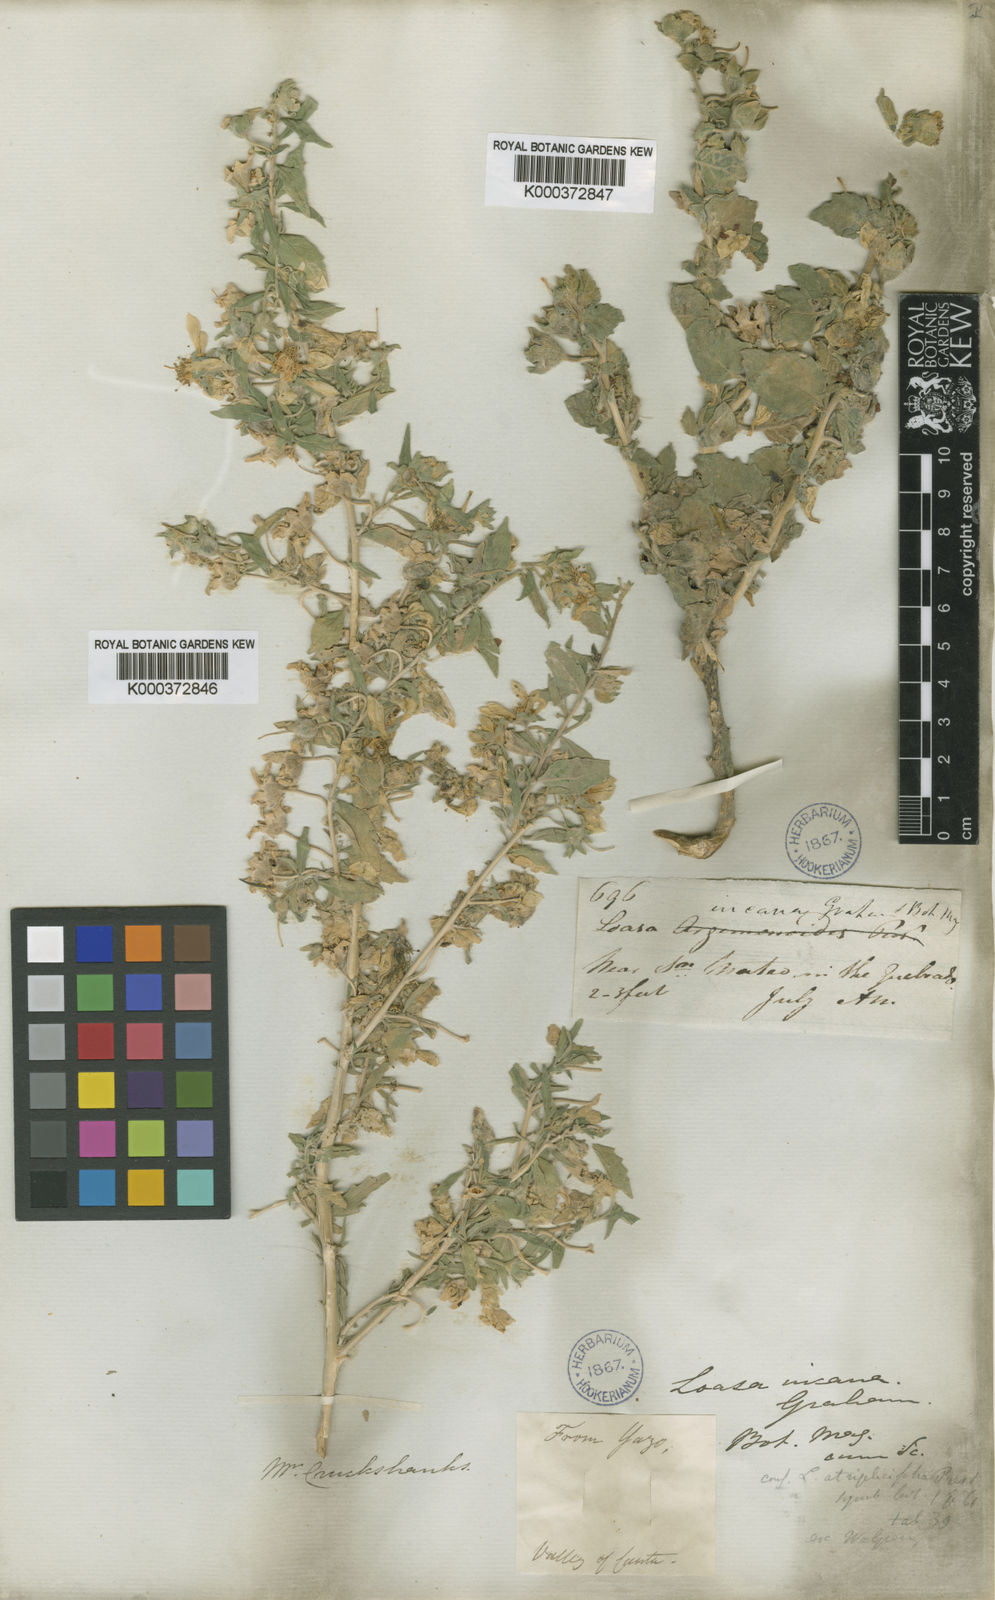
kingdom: Plantae
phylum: Tracheophyta
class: Magnoliopsida
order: Cornales
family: Loasaceae
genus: Presliophytum
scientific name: Presliophytum incanum
